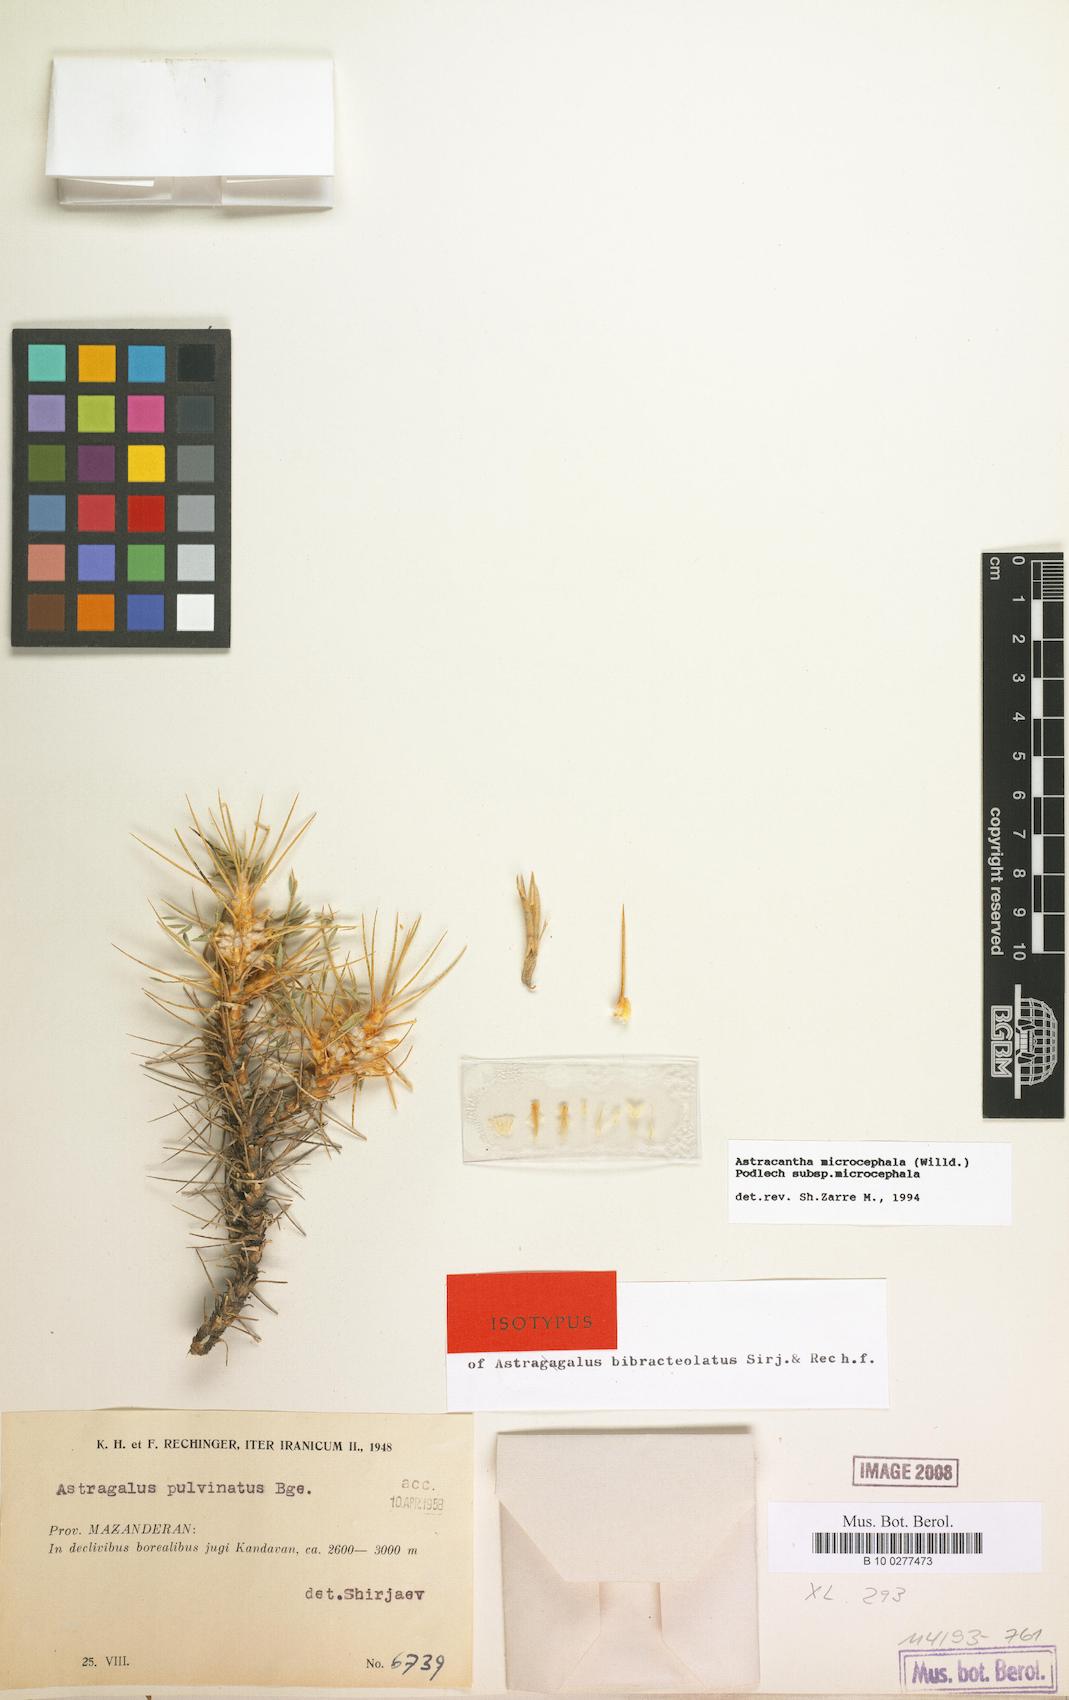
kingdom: Plantae
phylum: Tracheophyta
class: Magnoliopsida
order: Fabales
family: Fabaceae
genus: Astragalus
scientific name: Astragalus microcephalus
